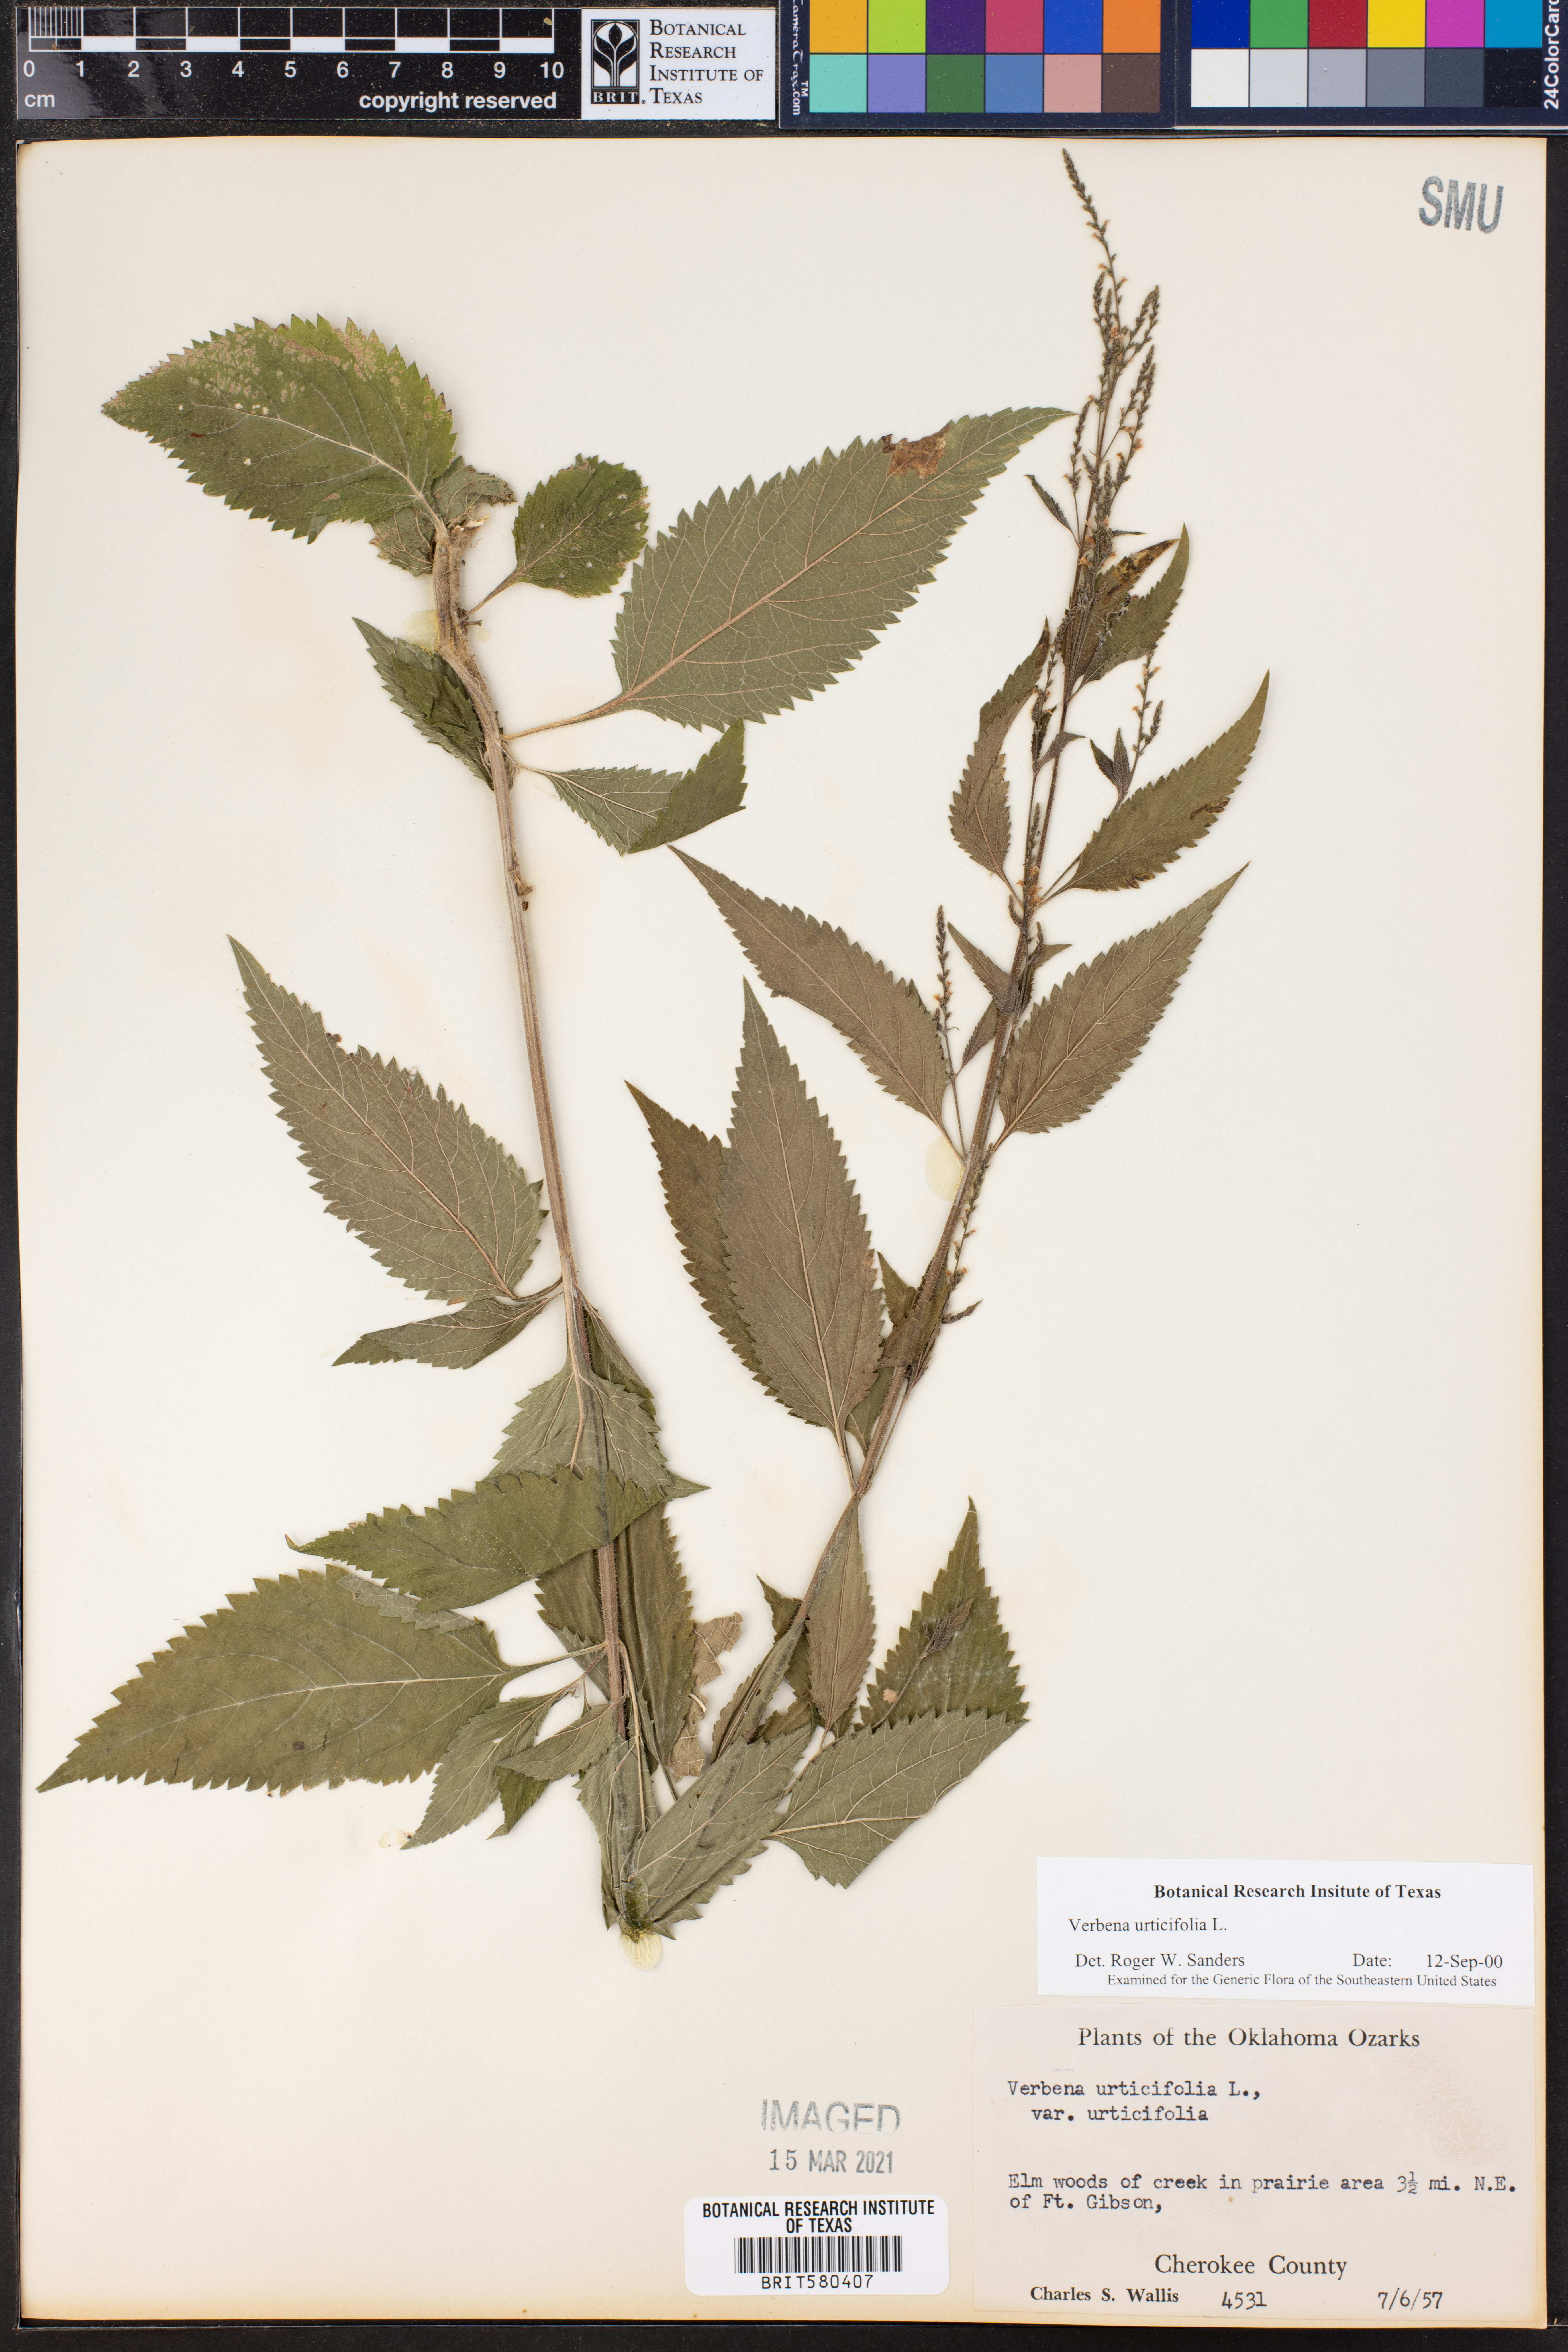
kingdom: Plantae
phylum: Tracheophyta
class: Magnoliopsida
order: Lamiales
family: Verbenaceae
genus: Verbena
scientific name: Verbena urticifolia
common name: Nettle-leaved vervain
